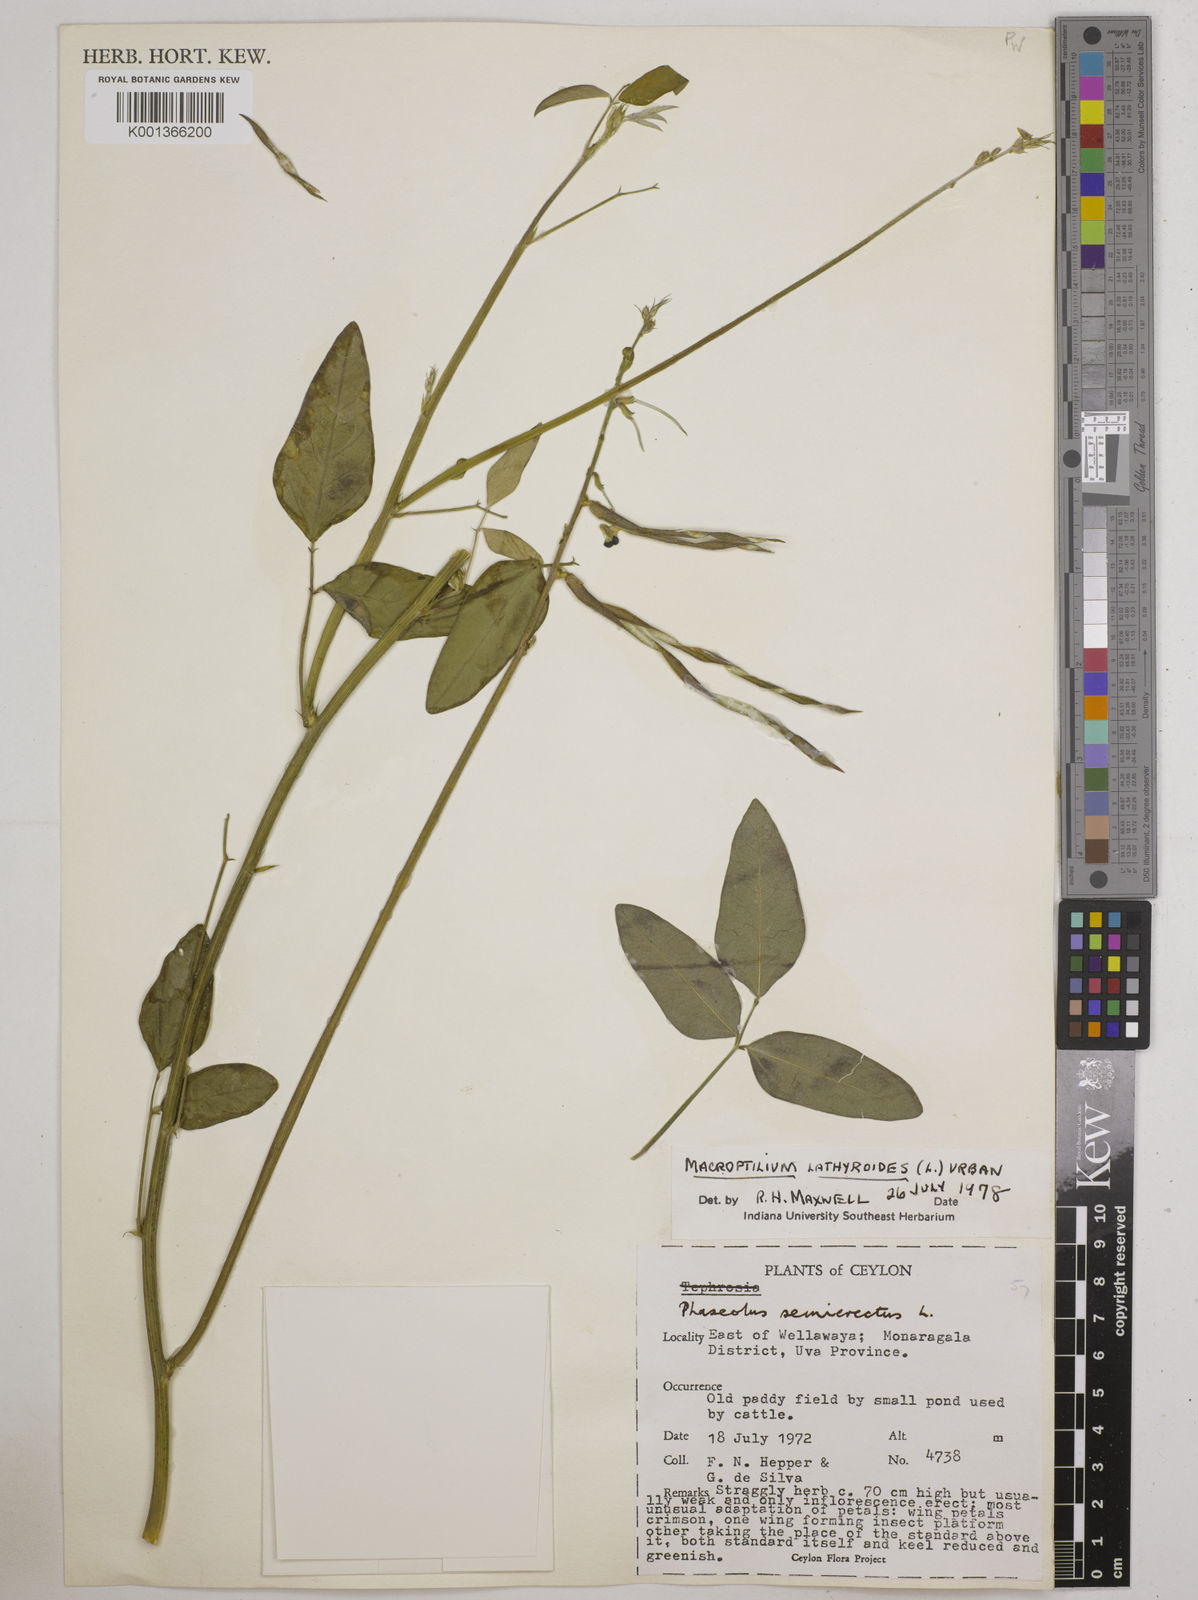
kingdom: Plantae
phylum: Tracheophyta
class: Magnoliopsida
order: Fabales
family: Fabaceae
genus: Macroptilium
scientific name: Macroptilium lathyroides
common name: Wild bushbean
